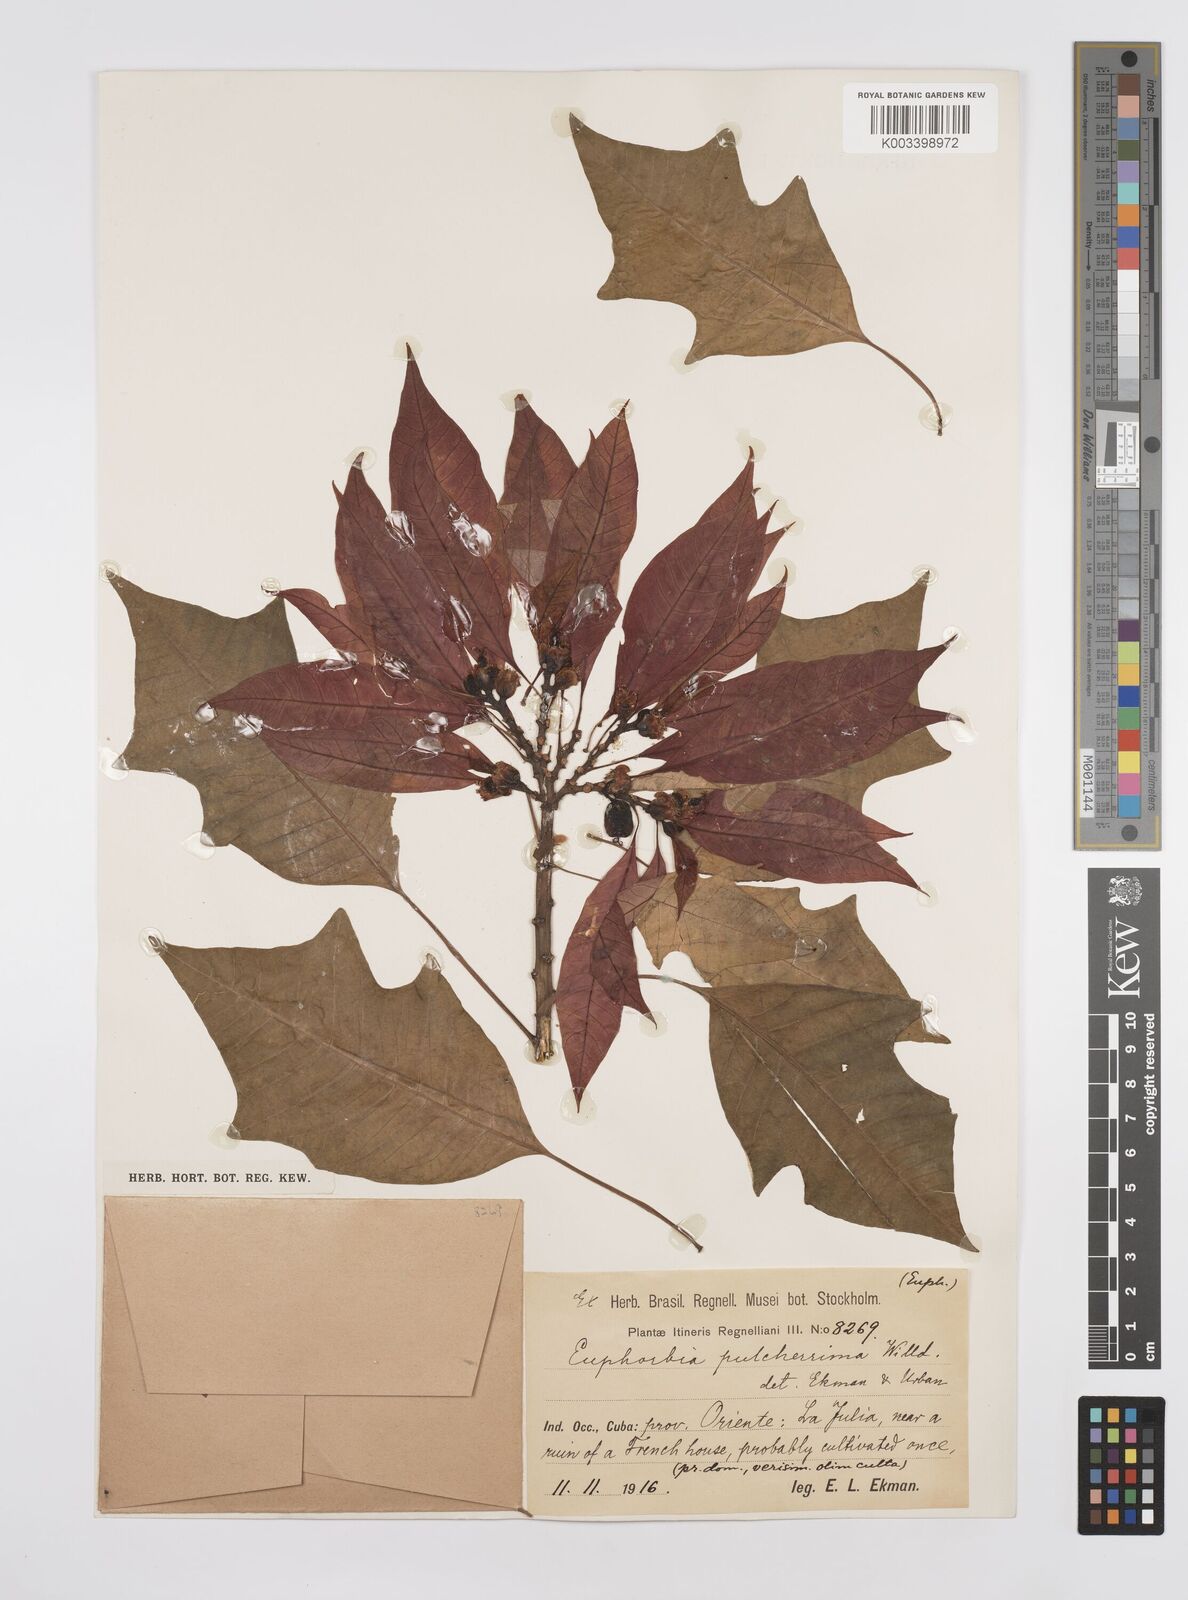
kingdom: Plantae
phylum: Tracheophyta
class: Magnoliopsida
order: Malpighiales
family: Euphorbiaceae
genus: Euphorbia
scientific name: Euphorbia
